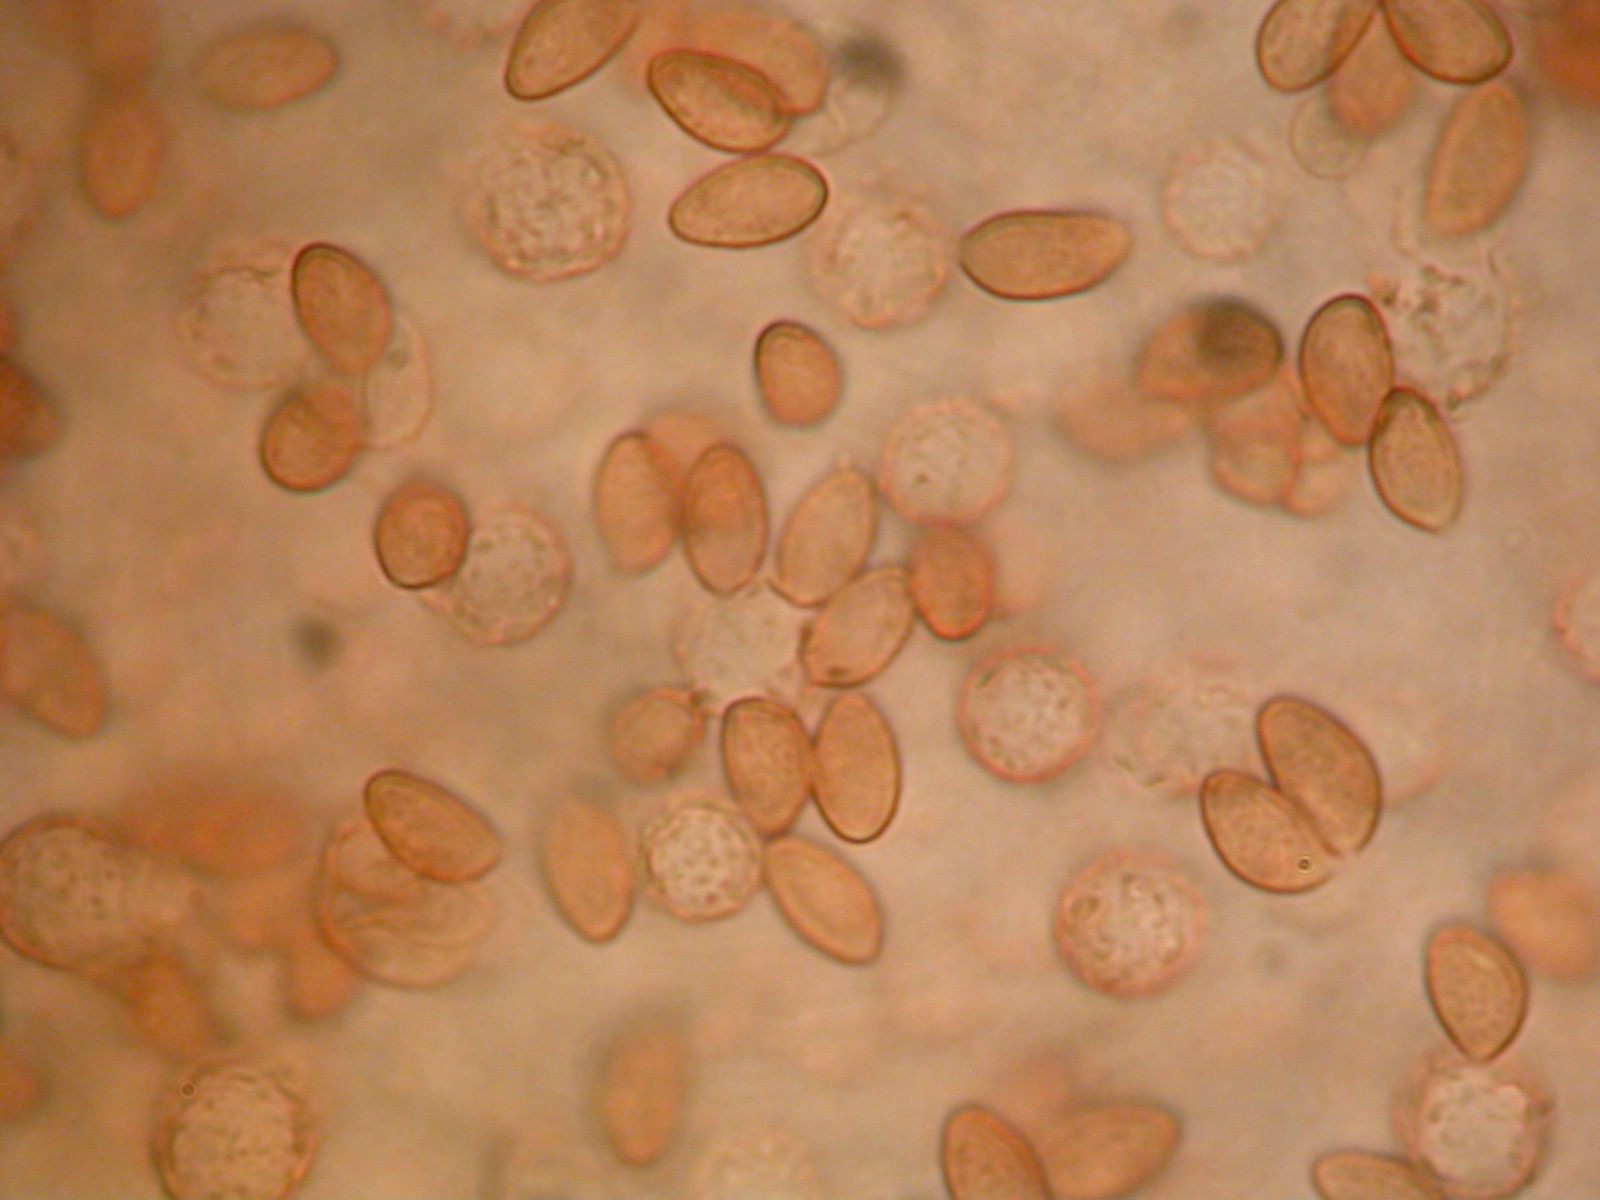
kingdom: Fungi
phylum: Basidiomycota
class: Agaricomycetes
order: Agaricales
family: Cortinariaceae
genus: Phlegmacium
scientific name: Phlegmacium areni-silvae
